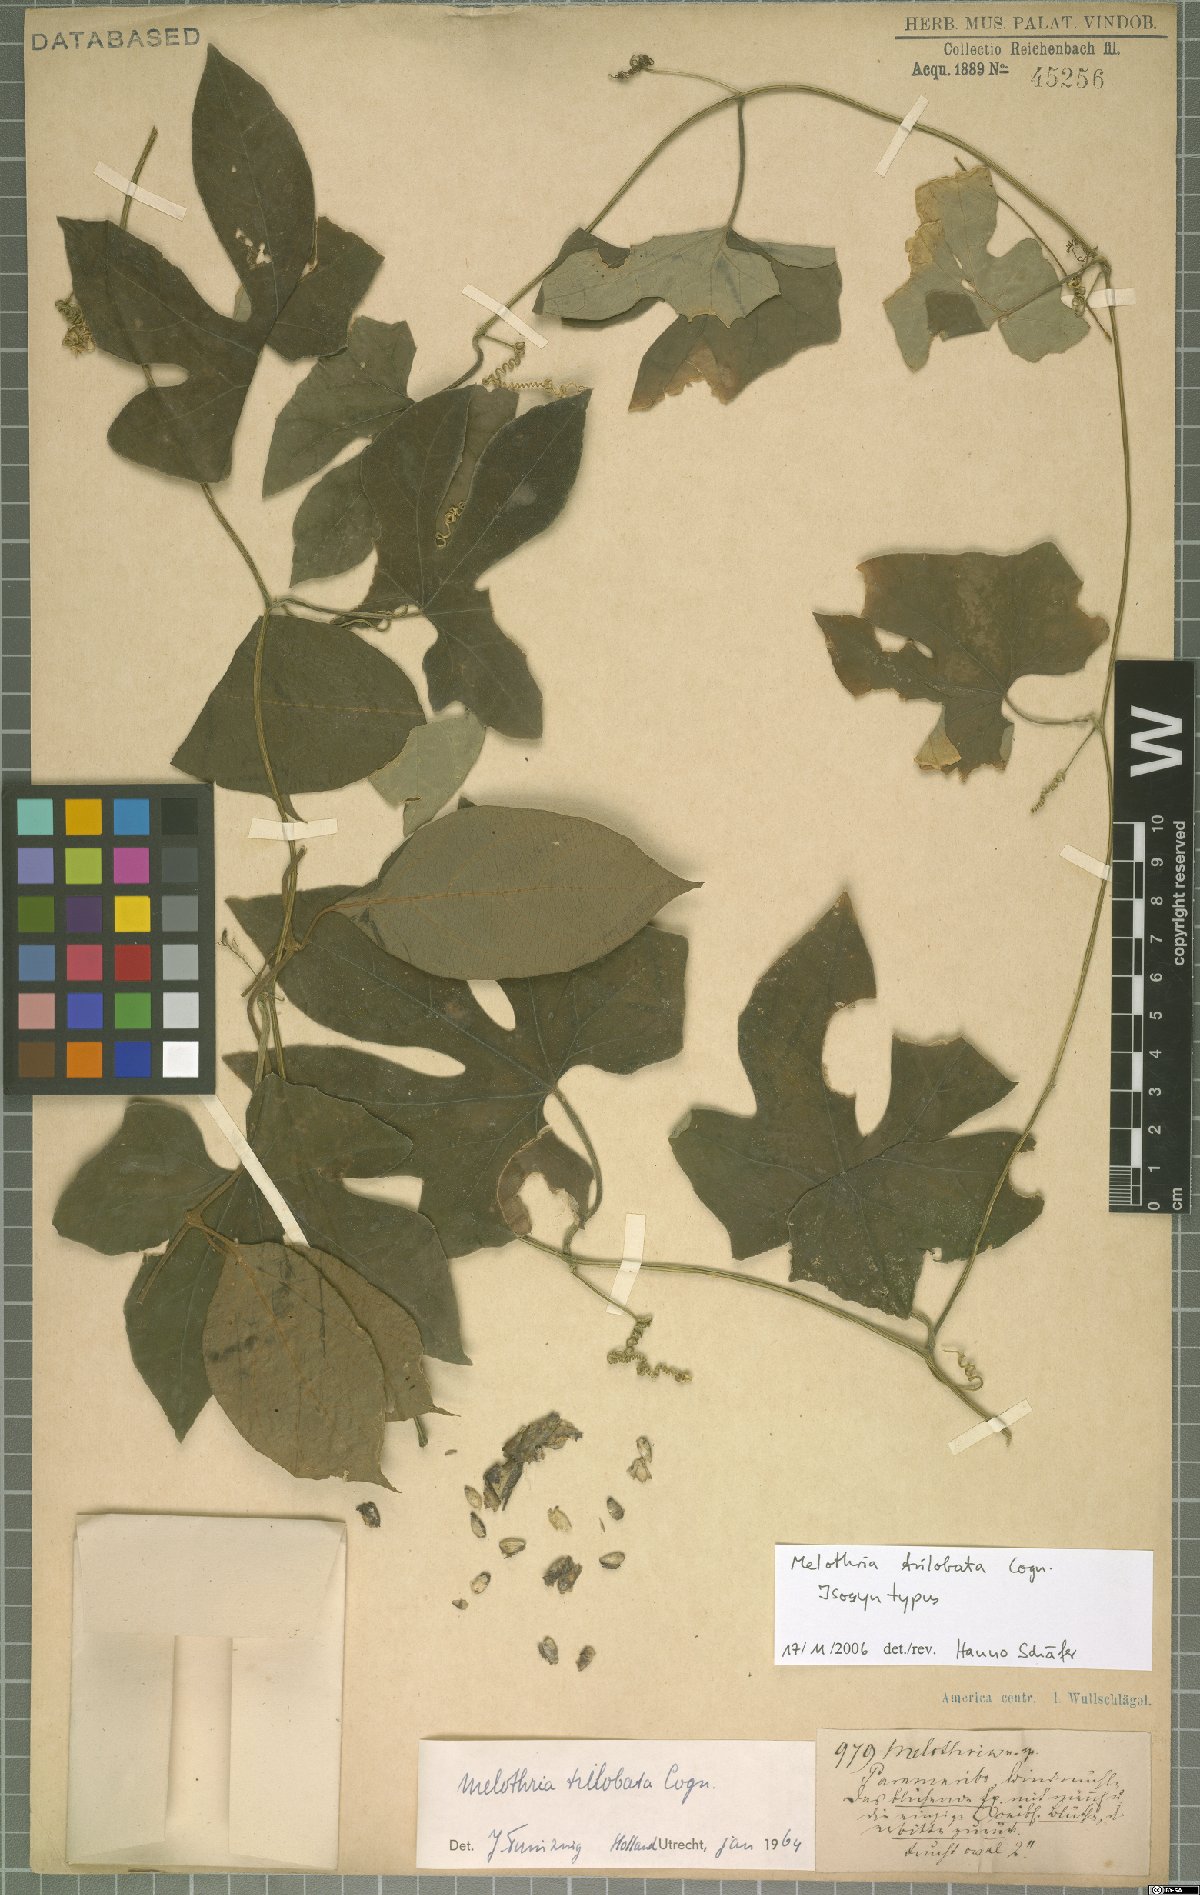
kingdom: Plantae
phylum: Tracheophyta
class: Magnoliopsida
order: Cucurbitales
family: Cucurbitaceae
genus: Melothria
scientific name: Melothria trilobata
